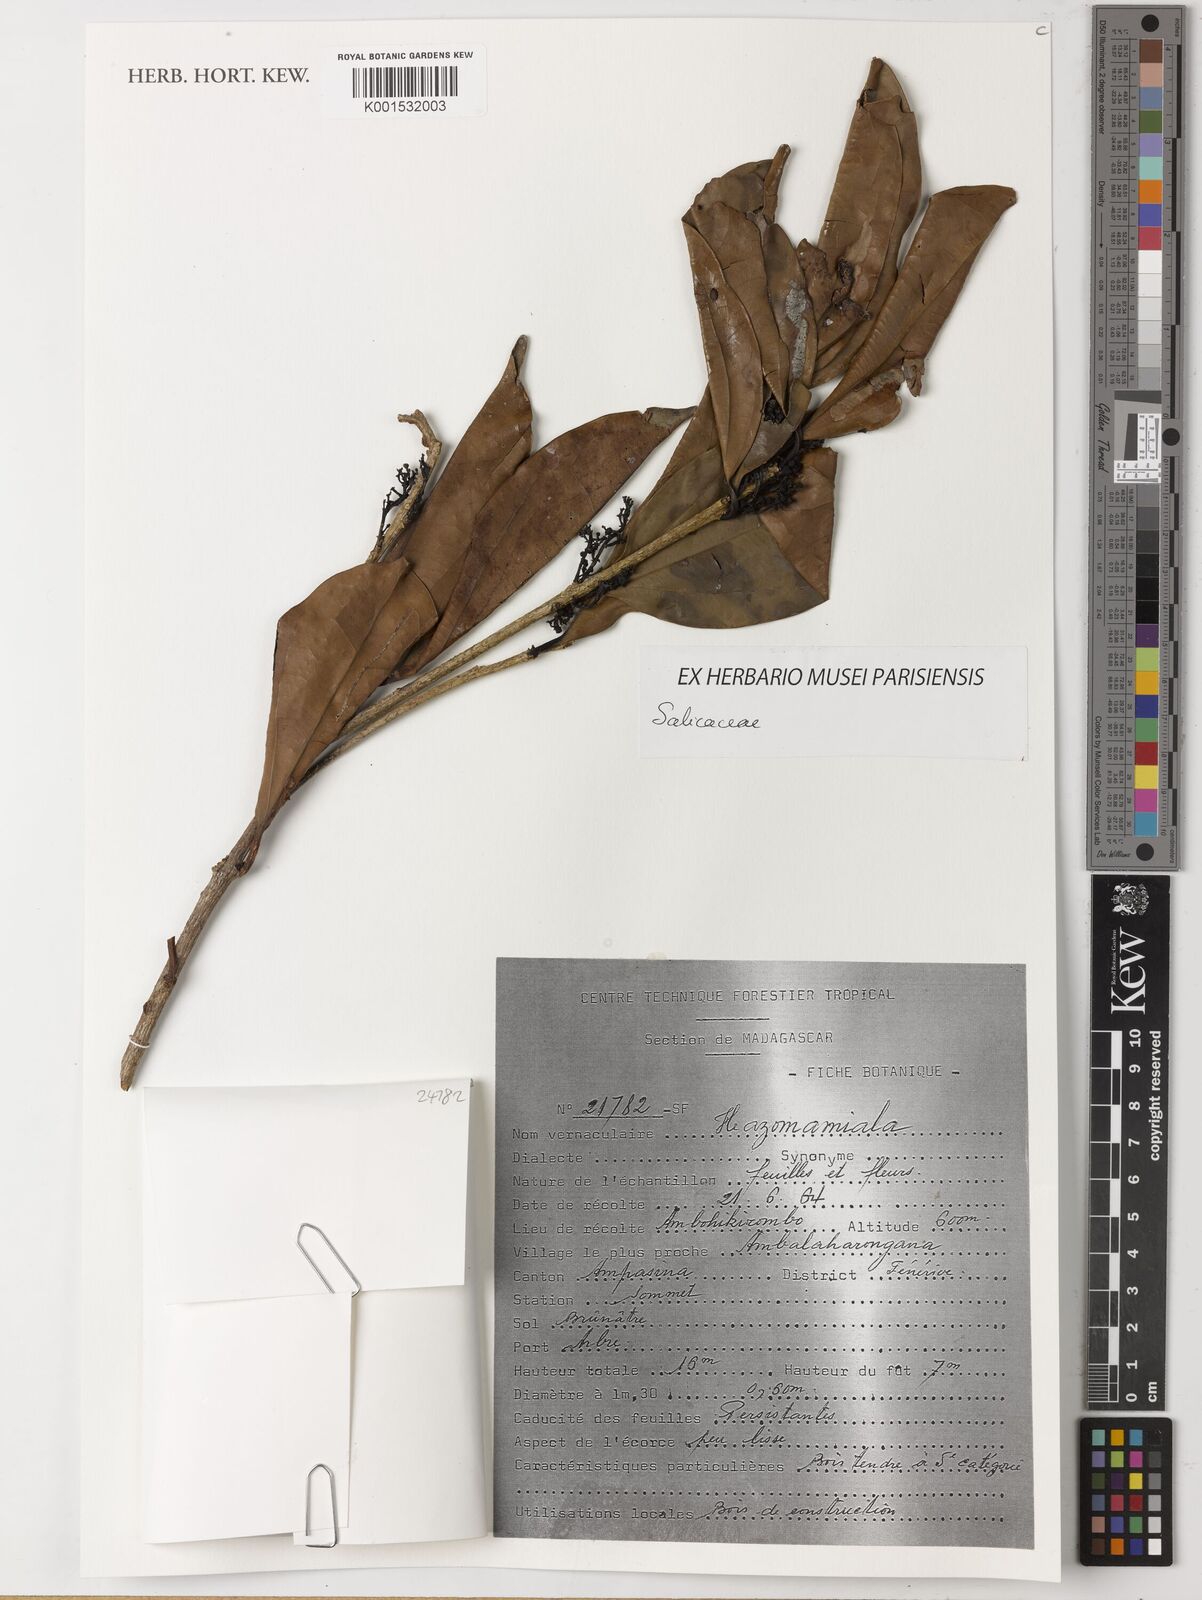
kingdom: Plantae
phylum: Tracheophyta
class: Magnoliopsida
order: Malpighiales
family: Salicaceae
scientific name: Salicaceae
